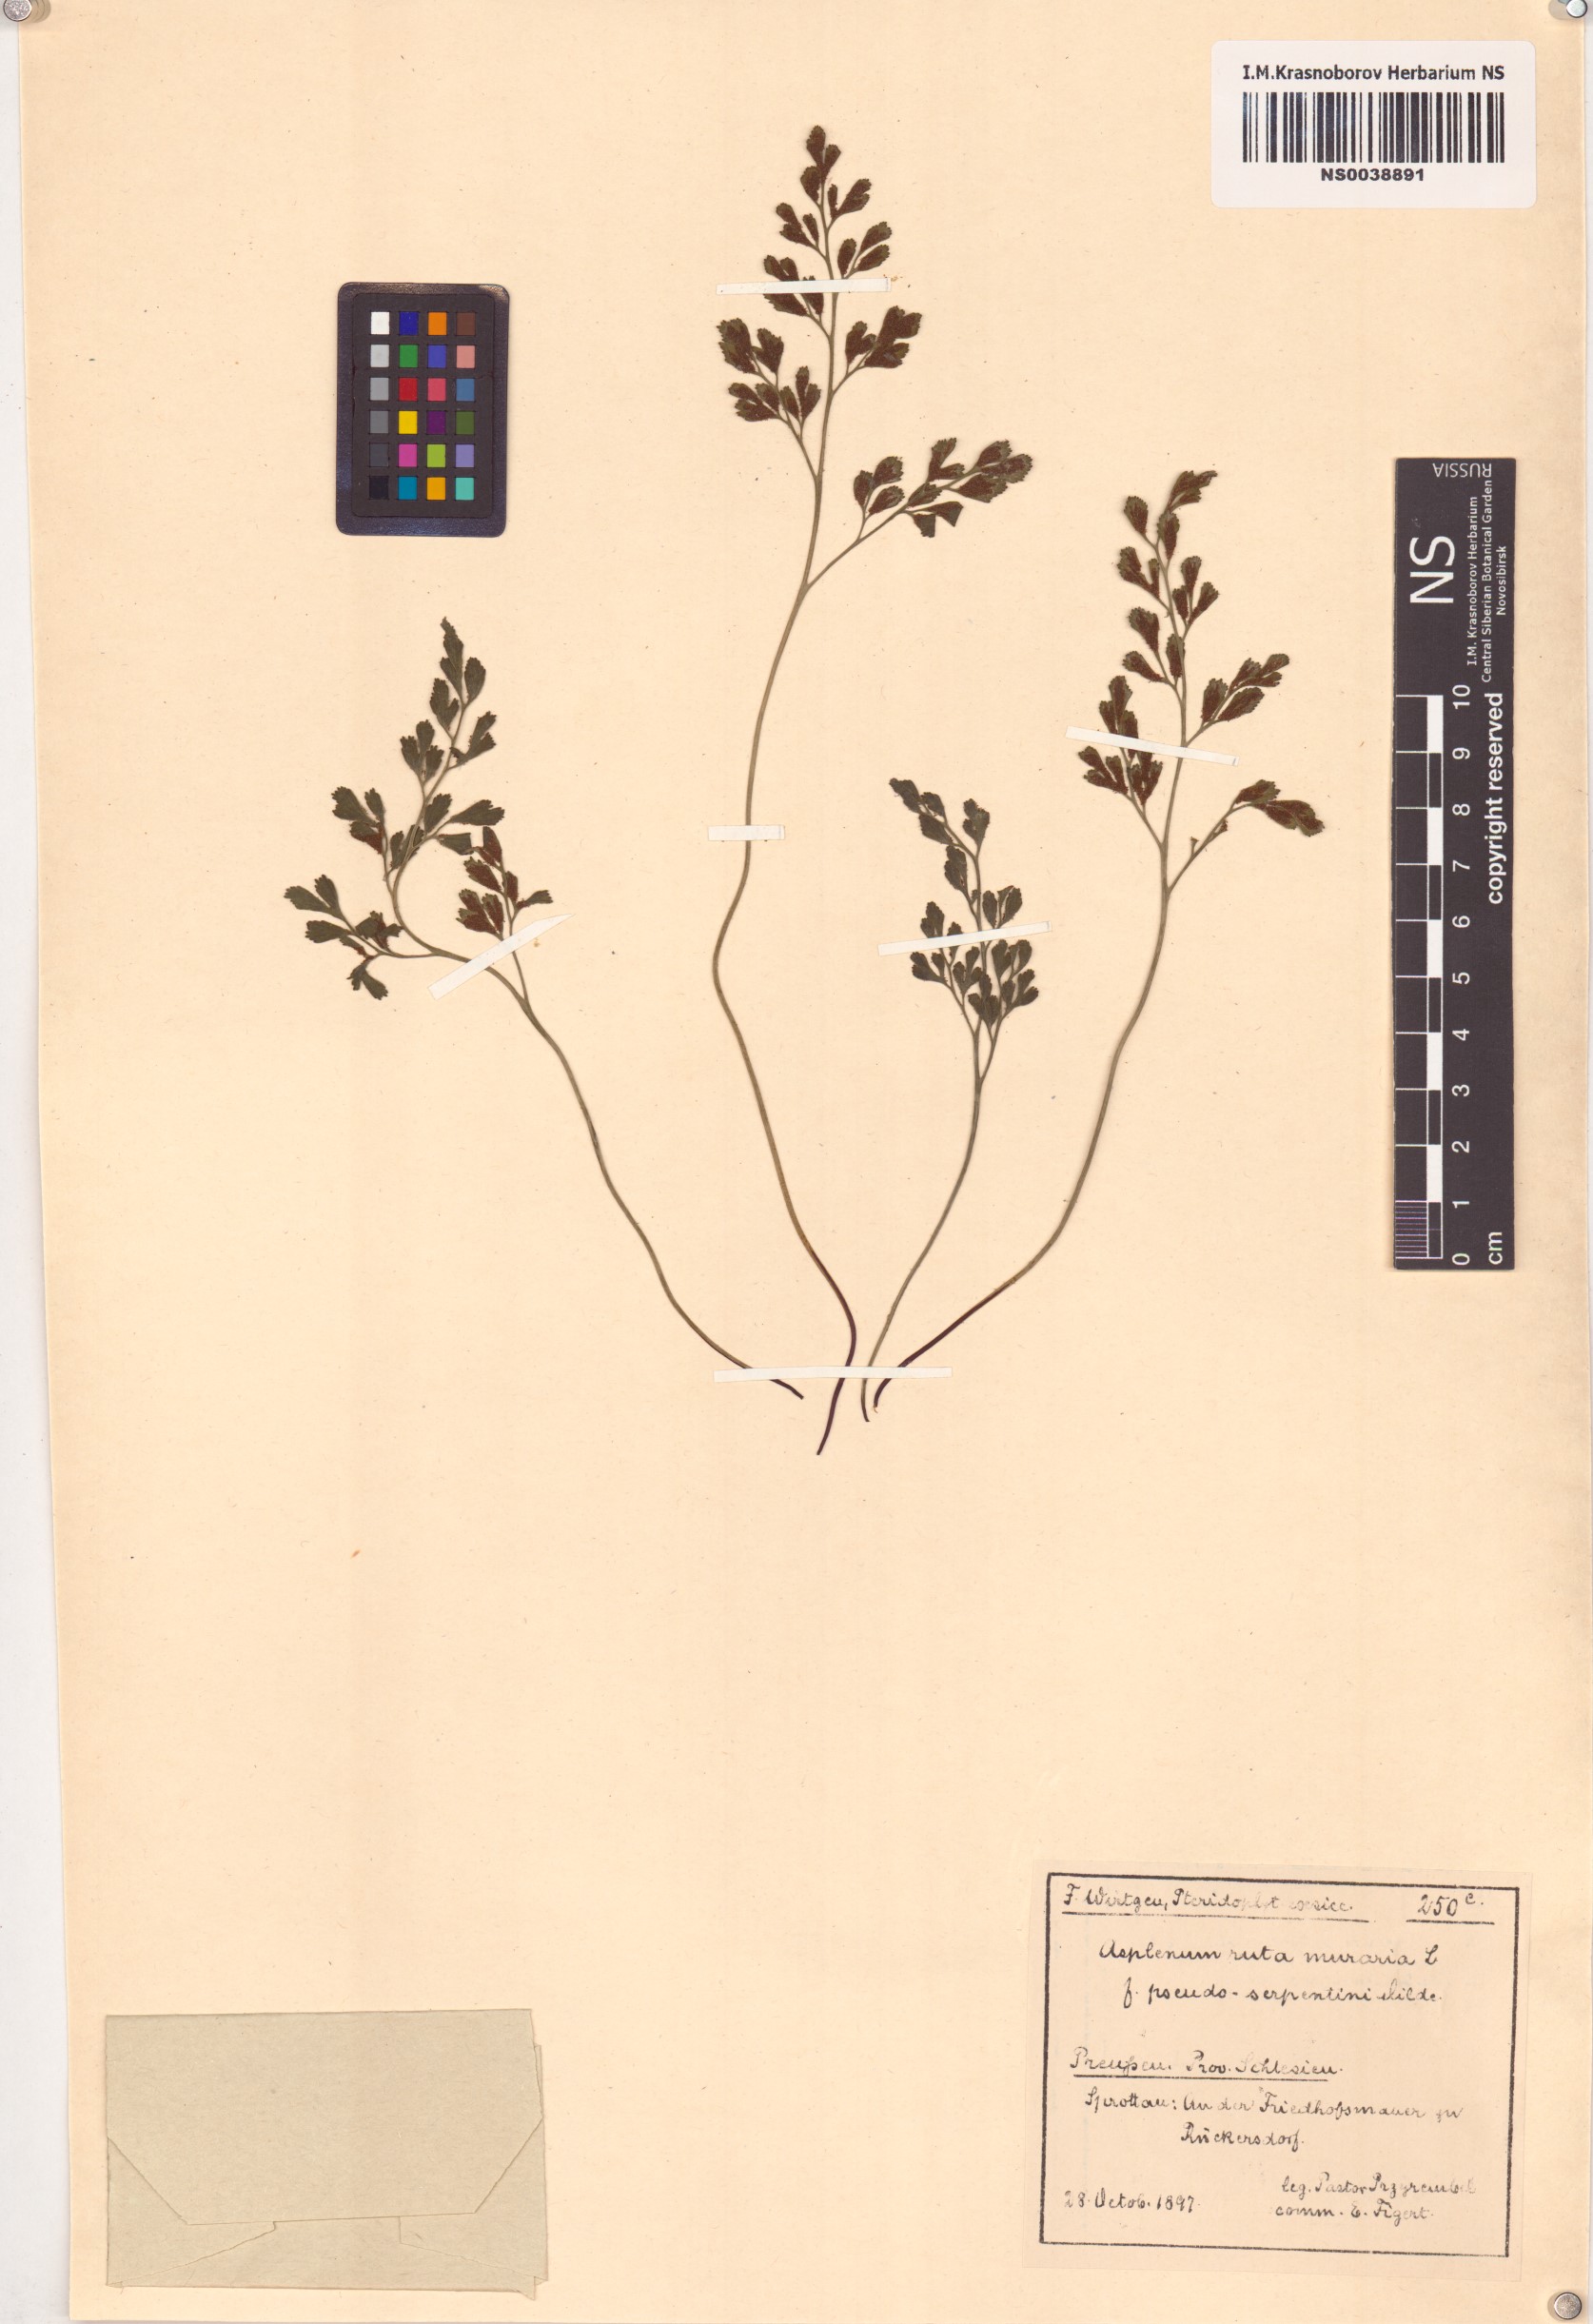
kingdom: Plantae
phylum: Tracheophyta
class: Polypodiopsida
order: Polypodiales
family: Aspleniaceae
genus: Asplenium
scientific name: Asplenium ruta-muraria
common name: Wall-rue
